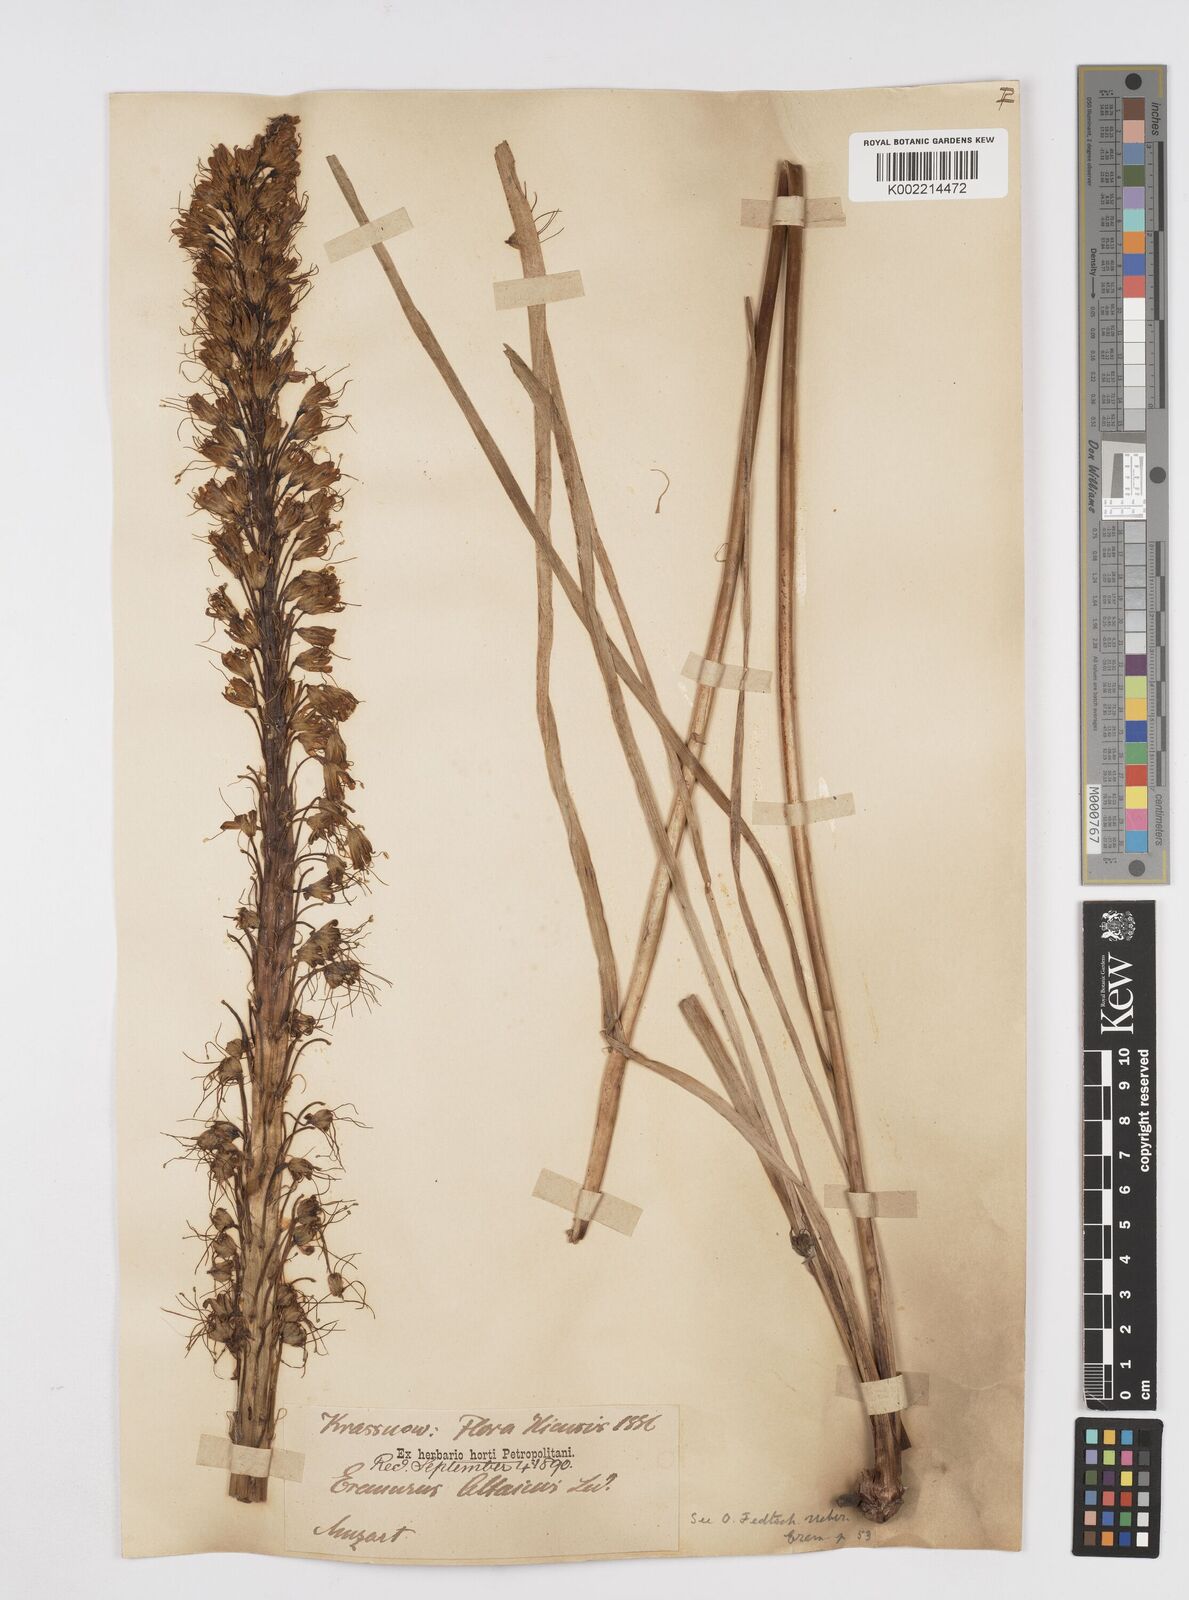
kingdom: Plantae
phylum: Tracheophyta
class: Liliopsida
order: Asparagales
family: Asphodelaceae
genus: Eremurus
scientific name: Eremurus altaicus
